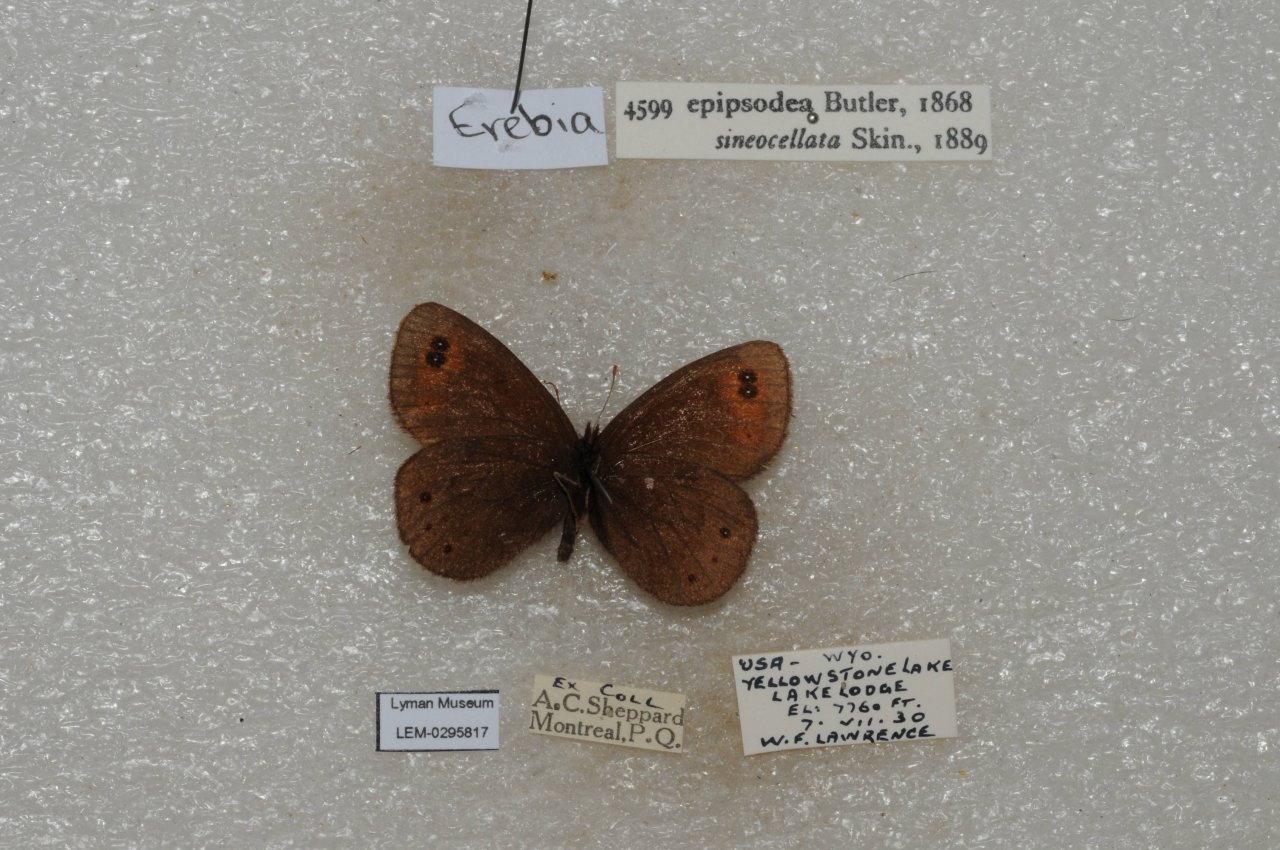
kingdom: Animalia
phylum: Arthropoda
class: Insecta
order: Lepidoptera
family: Nymphalidae
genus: Erebia
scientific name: Erebia epipsodea
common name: Common Alpine
